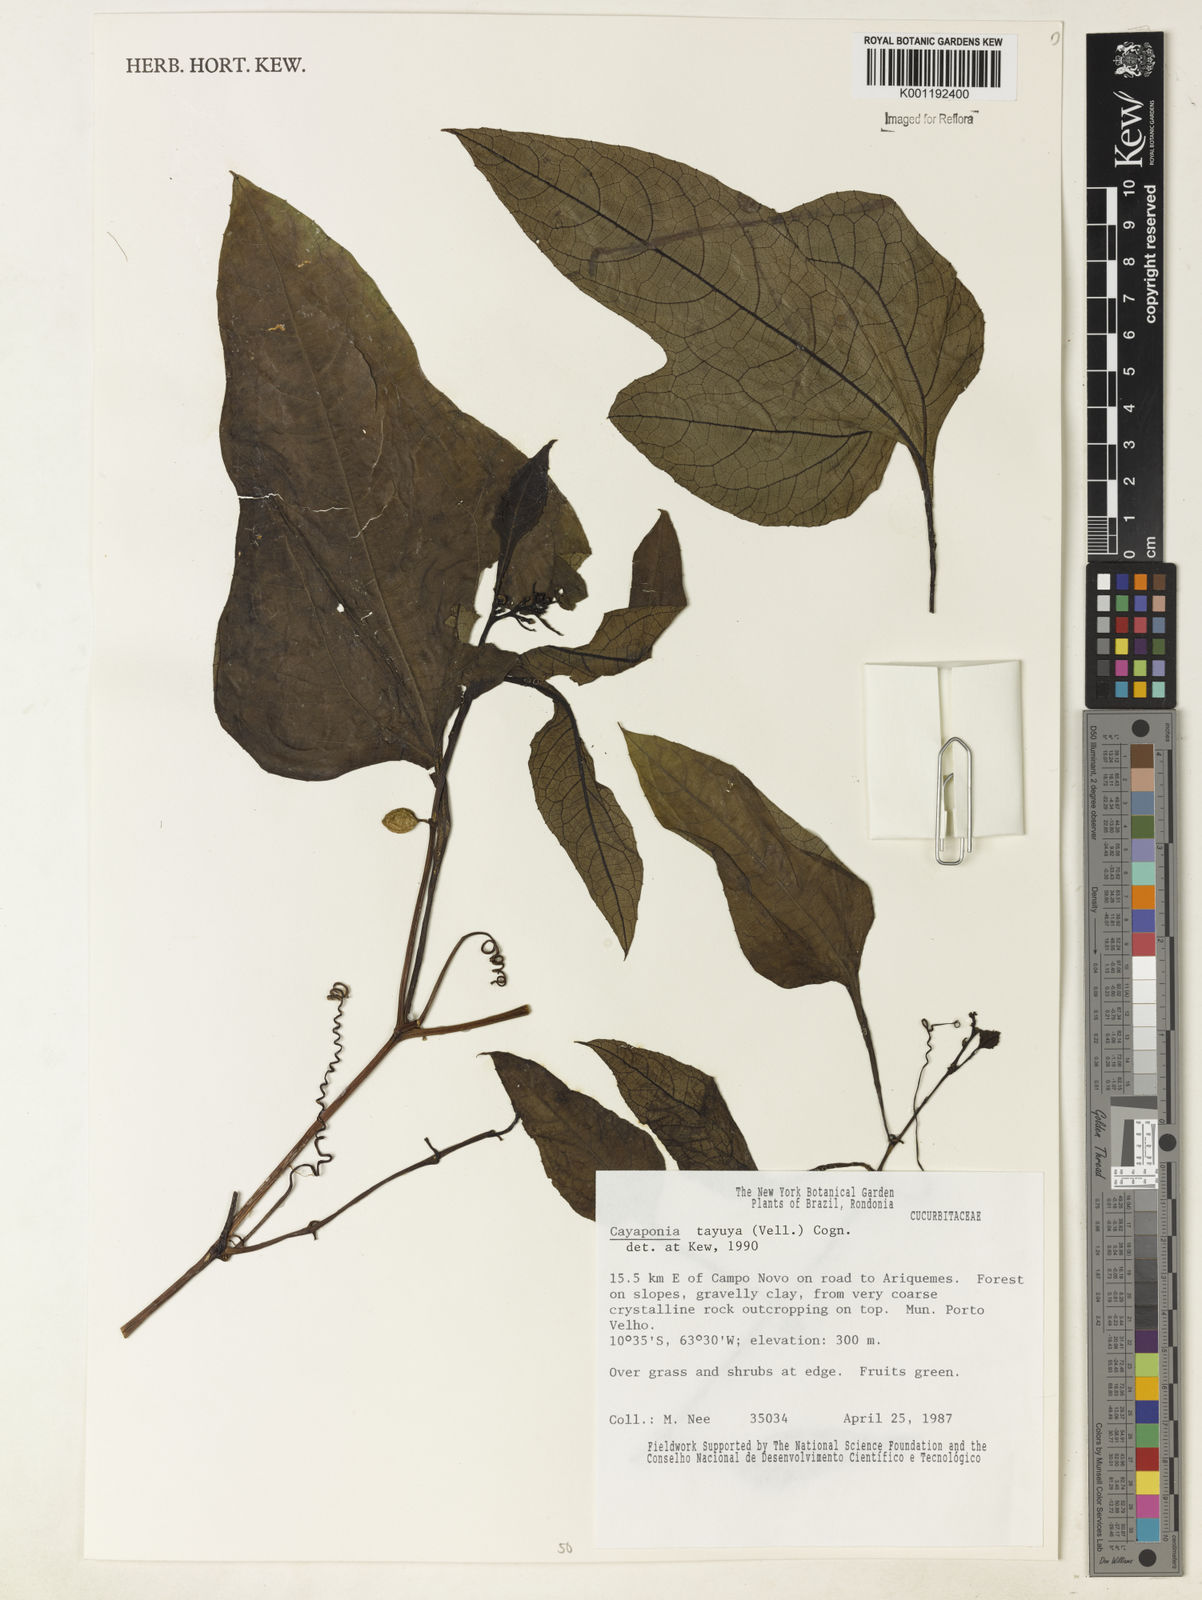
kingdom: Plantae
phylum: Tracheophyta
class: Magnoliopsida
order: Cucurbitales
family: Cucurbitaceae
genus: Cayaponia
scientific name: Cayaponia tayuya
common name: Tayuya
